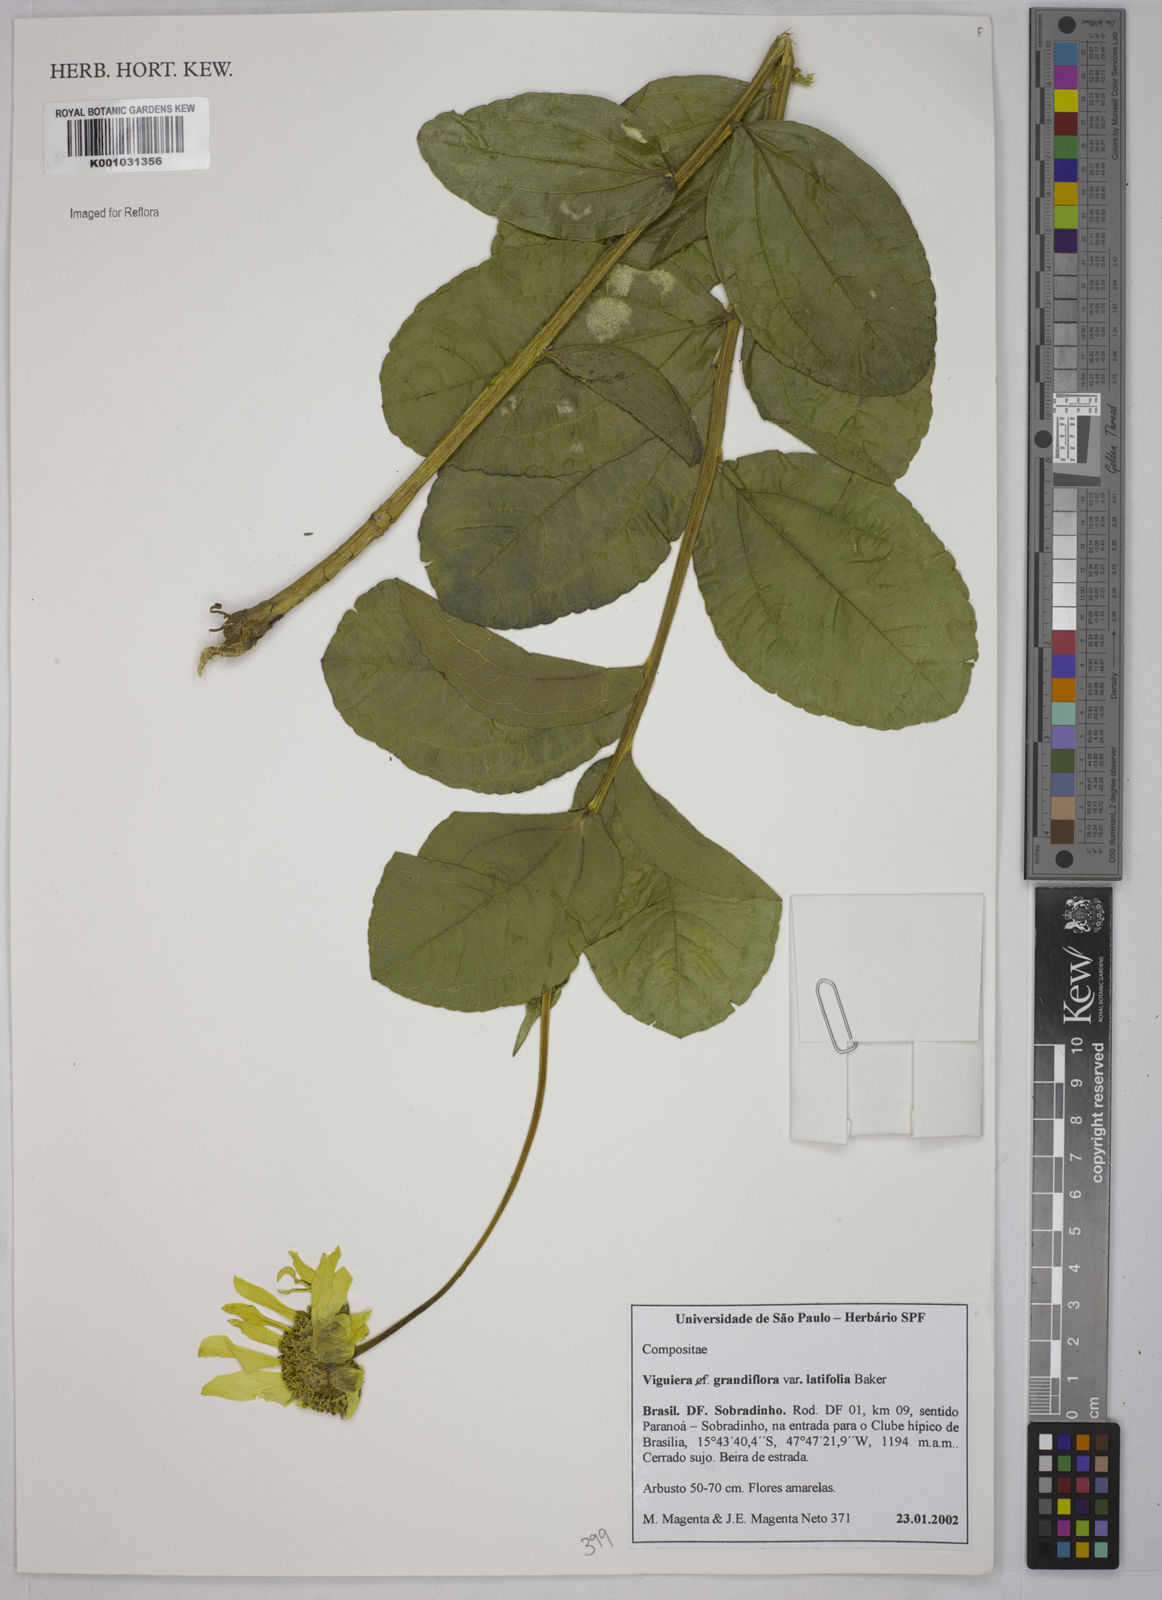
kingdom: Plantae
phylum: Tracheophyta
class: Magnoliopsida
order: Asterales
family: Asteraceae
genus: Aldama
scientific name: Aldama grandiflora
